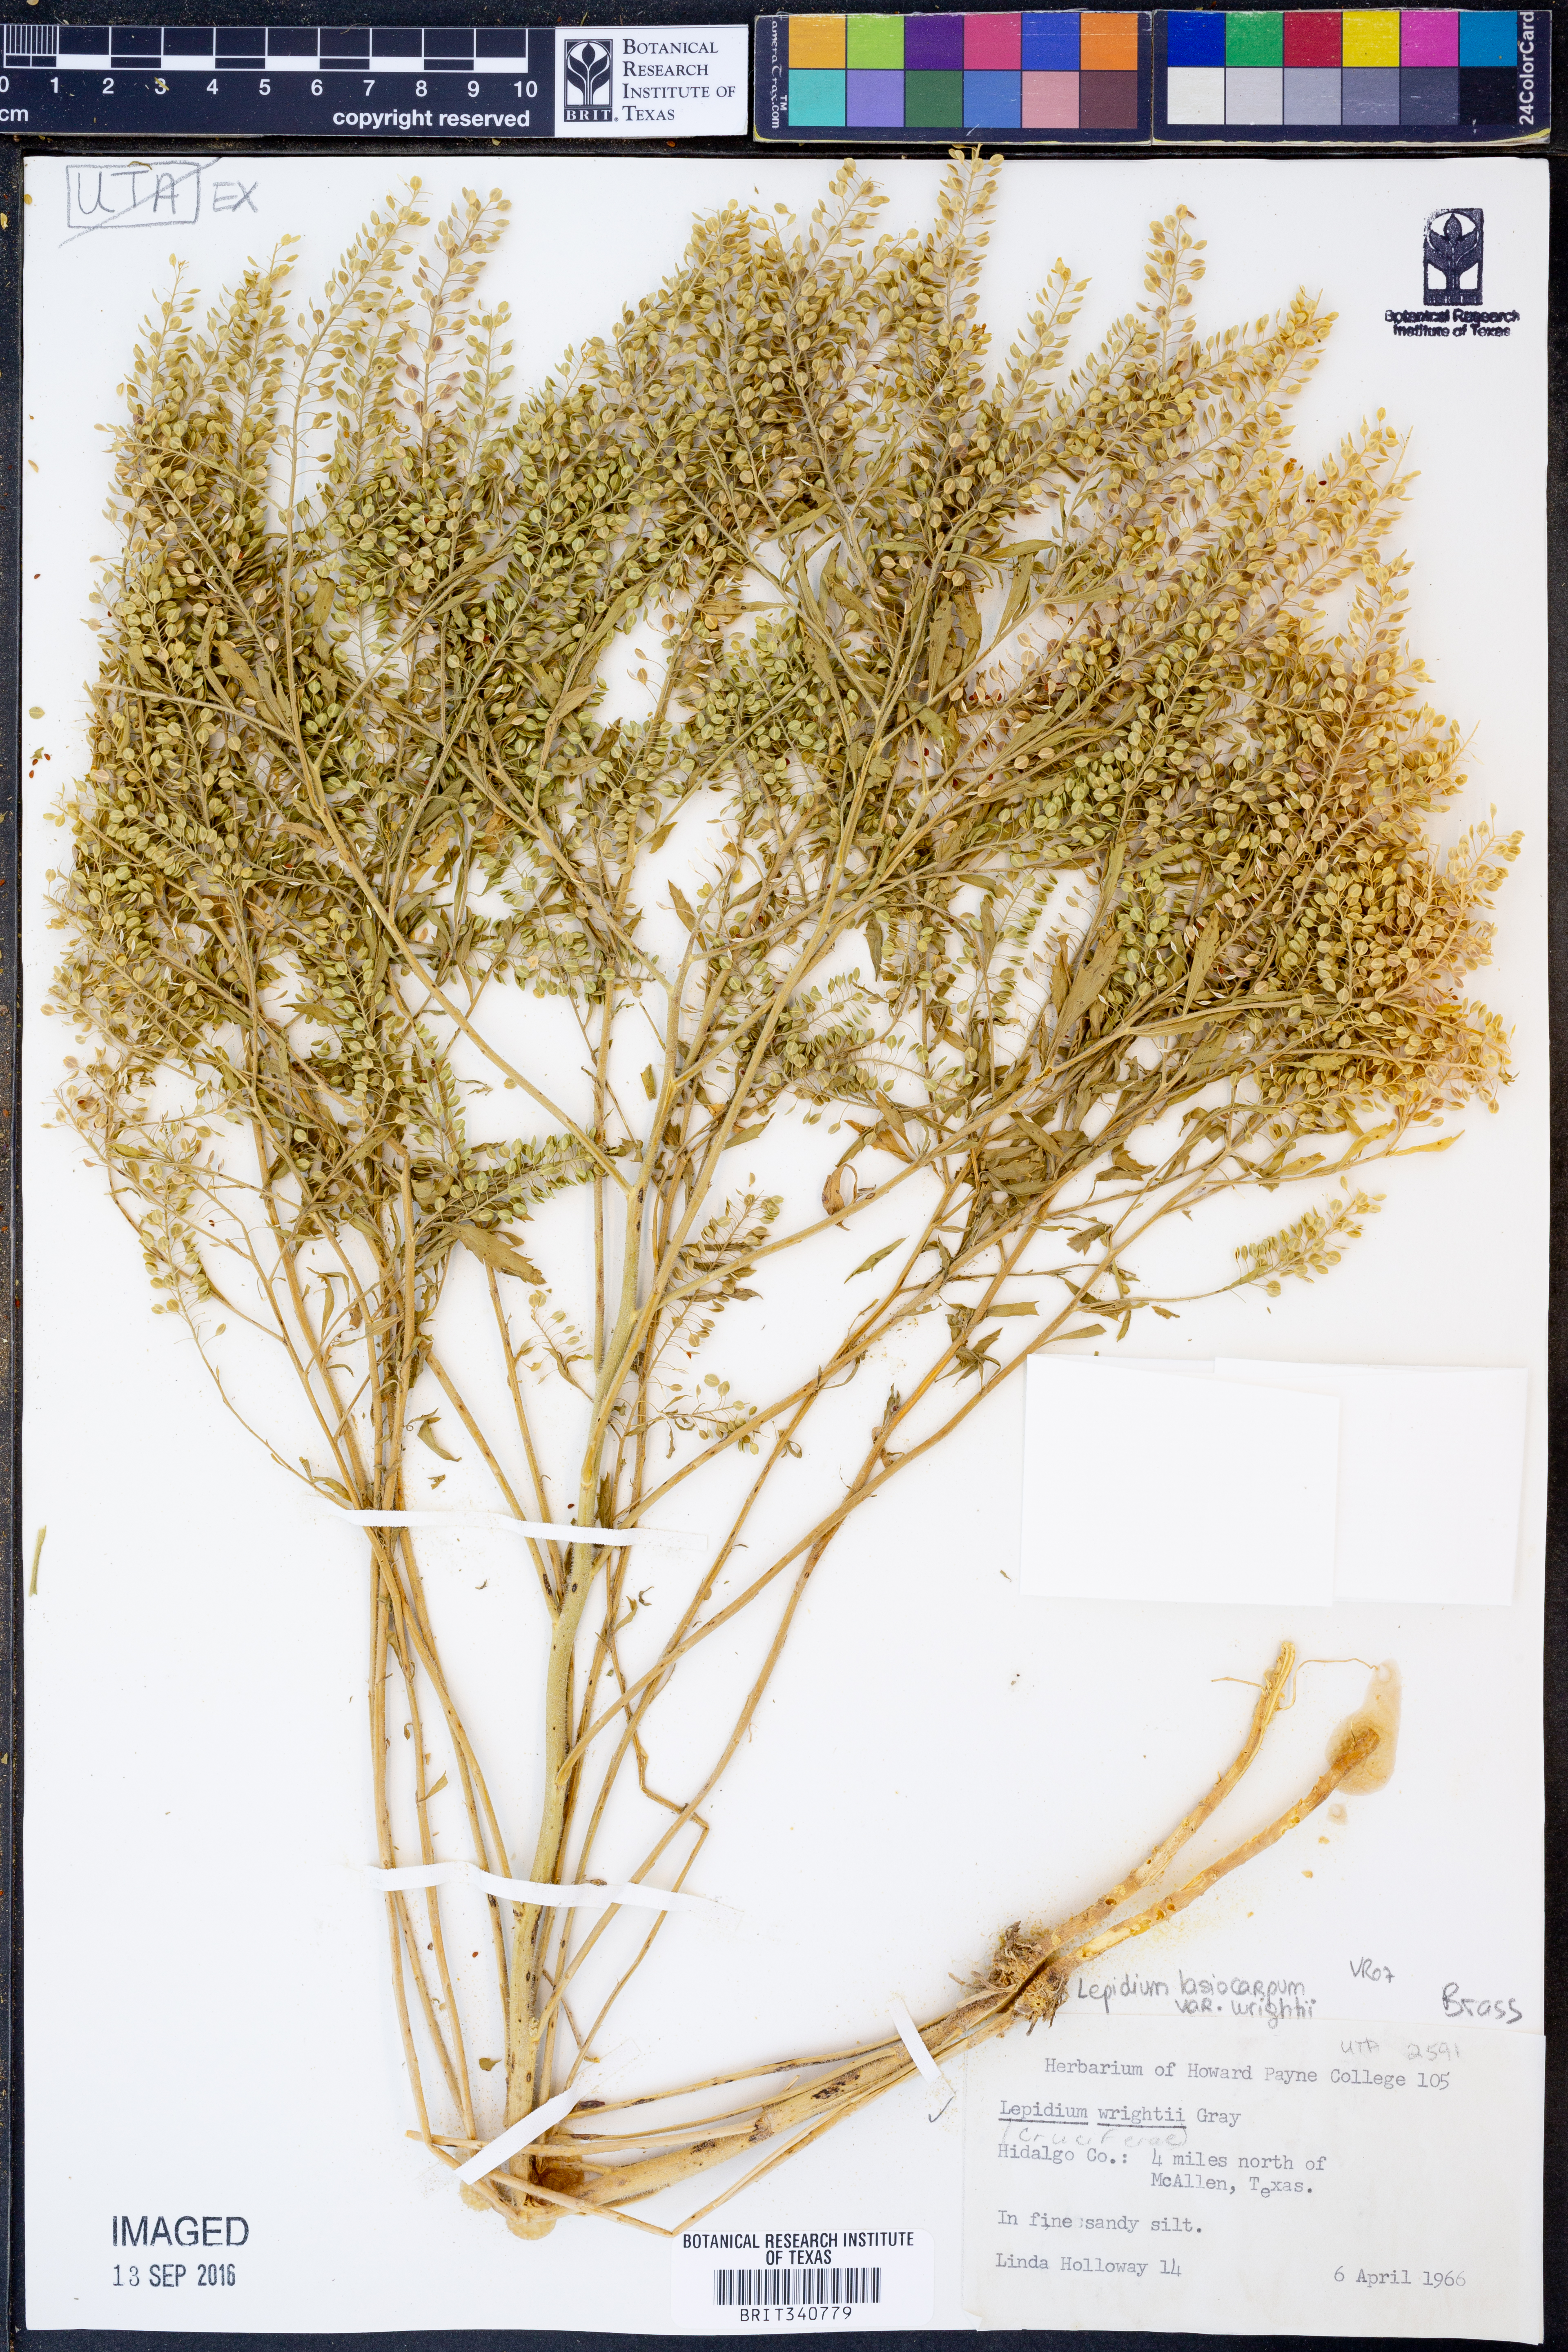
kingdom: Plantae
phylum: Tracheophyta
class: Magnoliopsida
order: Brassicales
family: Brassicaceae
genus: Lepidium
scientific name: Lepidium lasiocarpum
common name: Hairy-pod pepperwort
